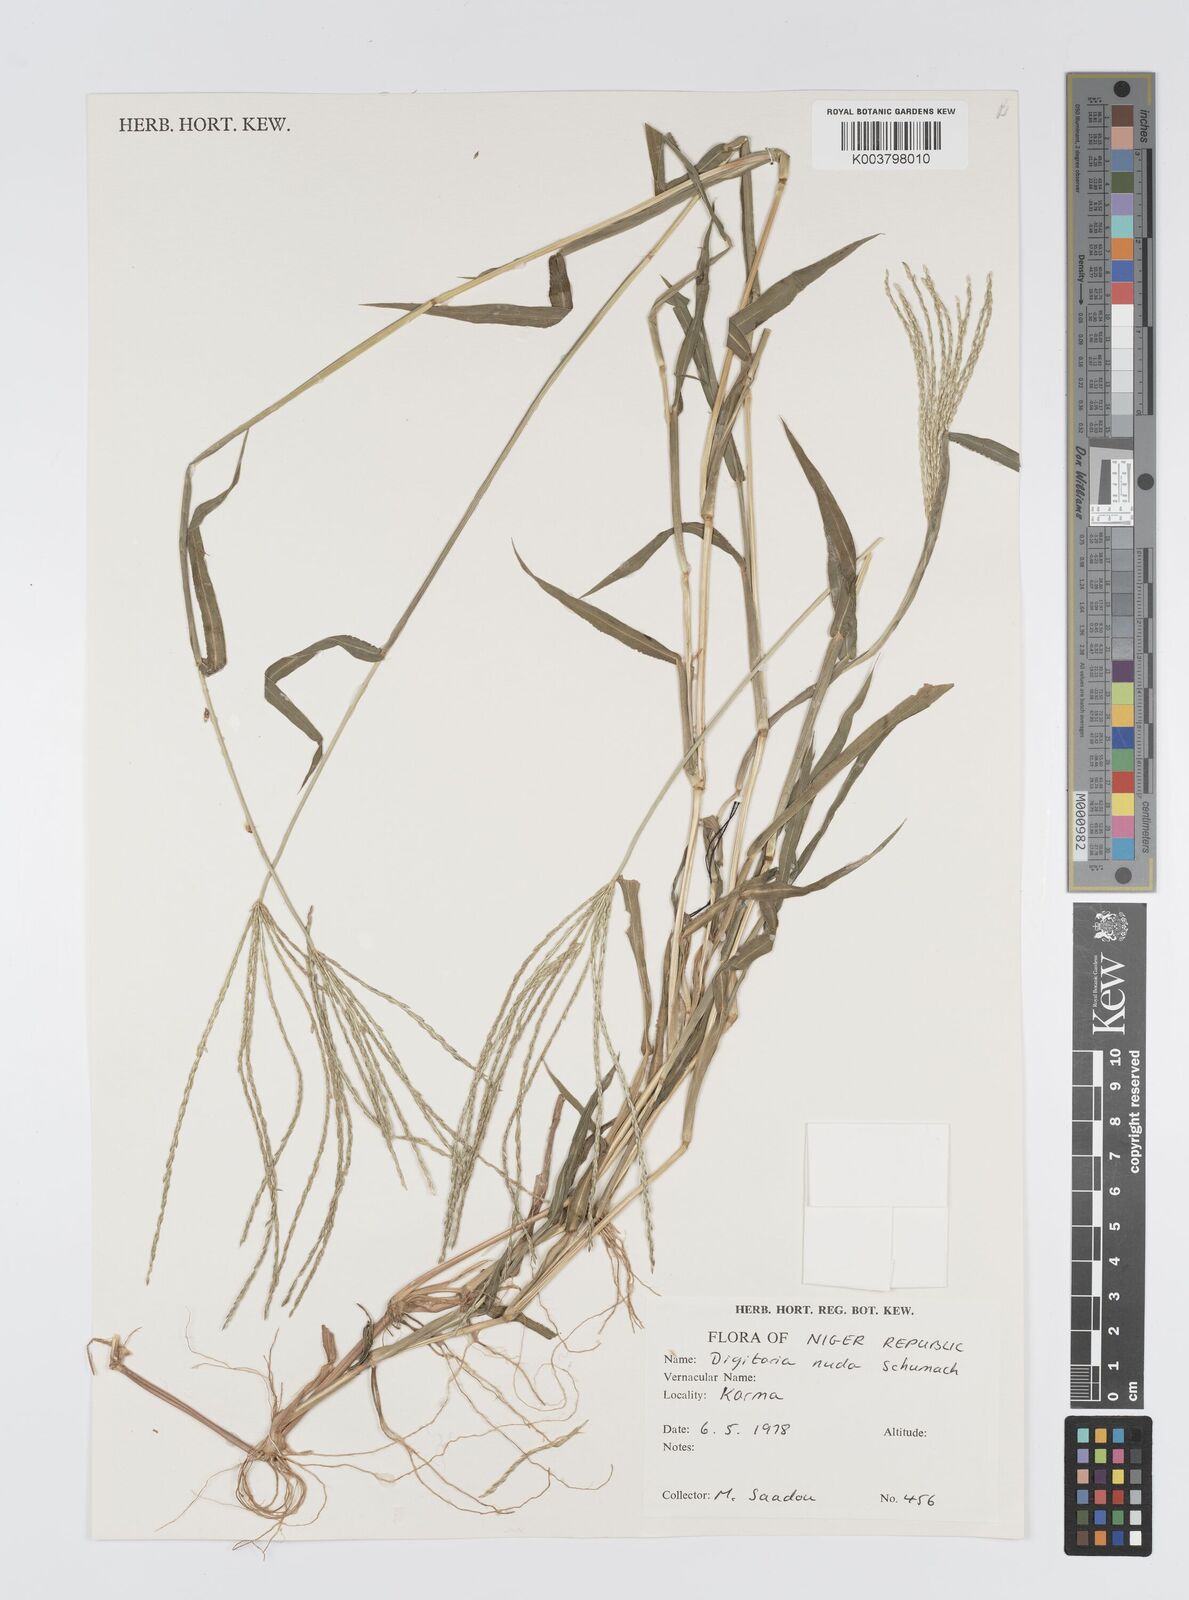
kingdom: Plantae
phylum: Tracheophyta
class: Liliopsida
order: Poales
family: Poaceae
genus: Digitaria
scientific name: Digitaria nuda
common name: Naked crabgrass
